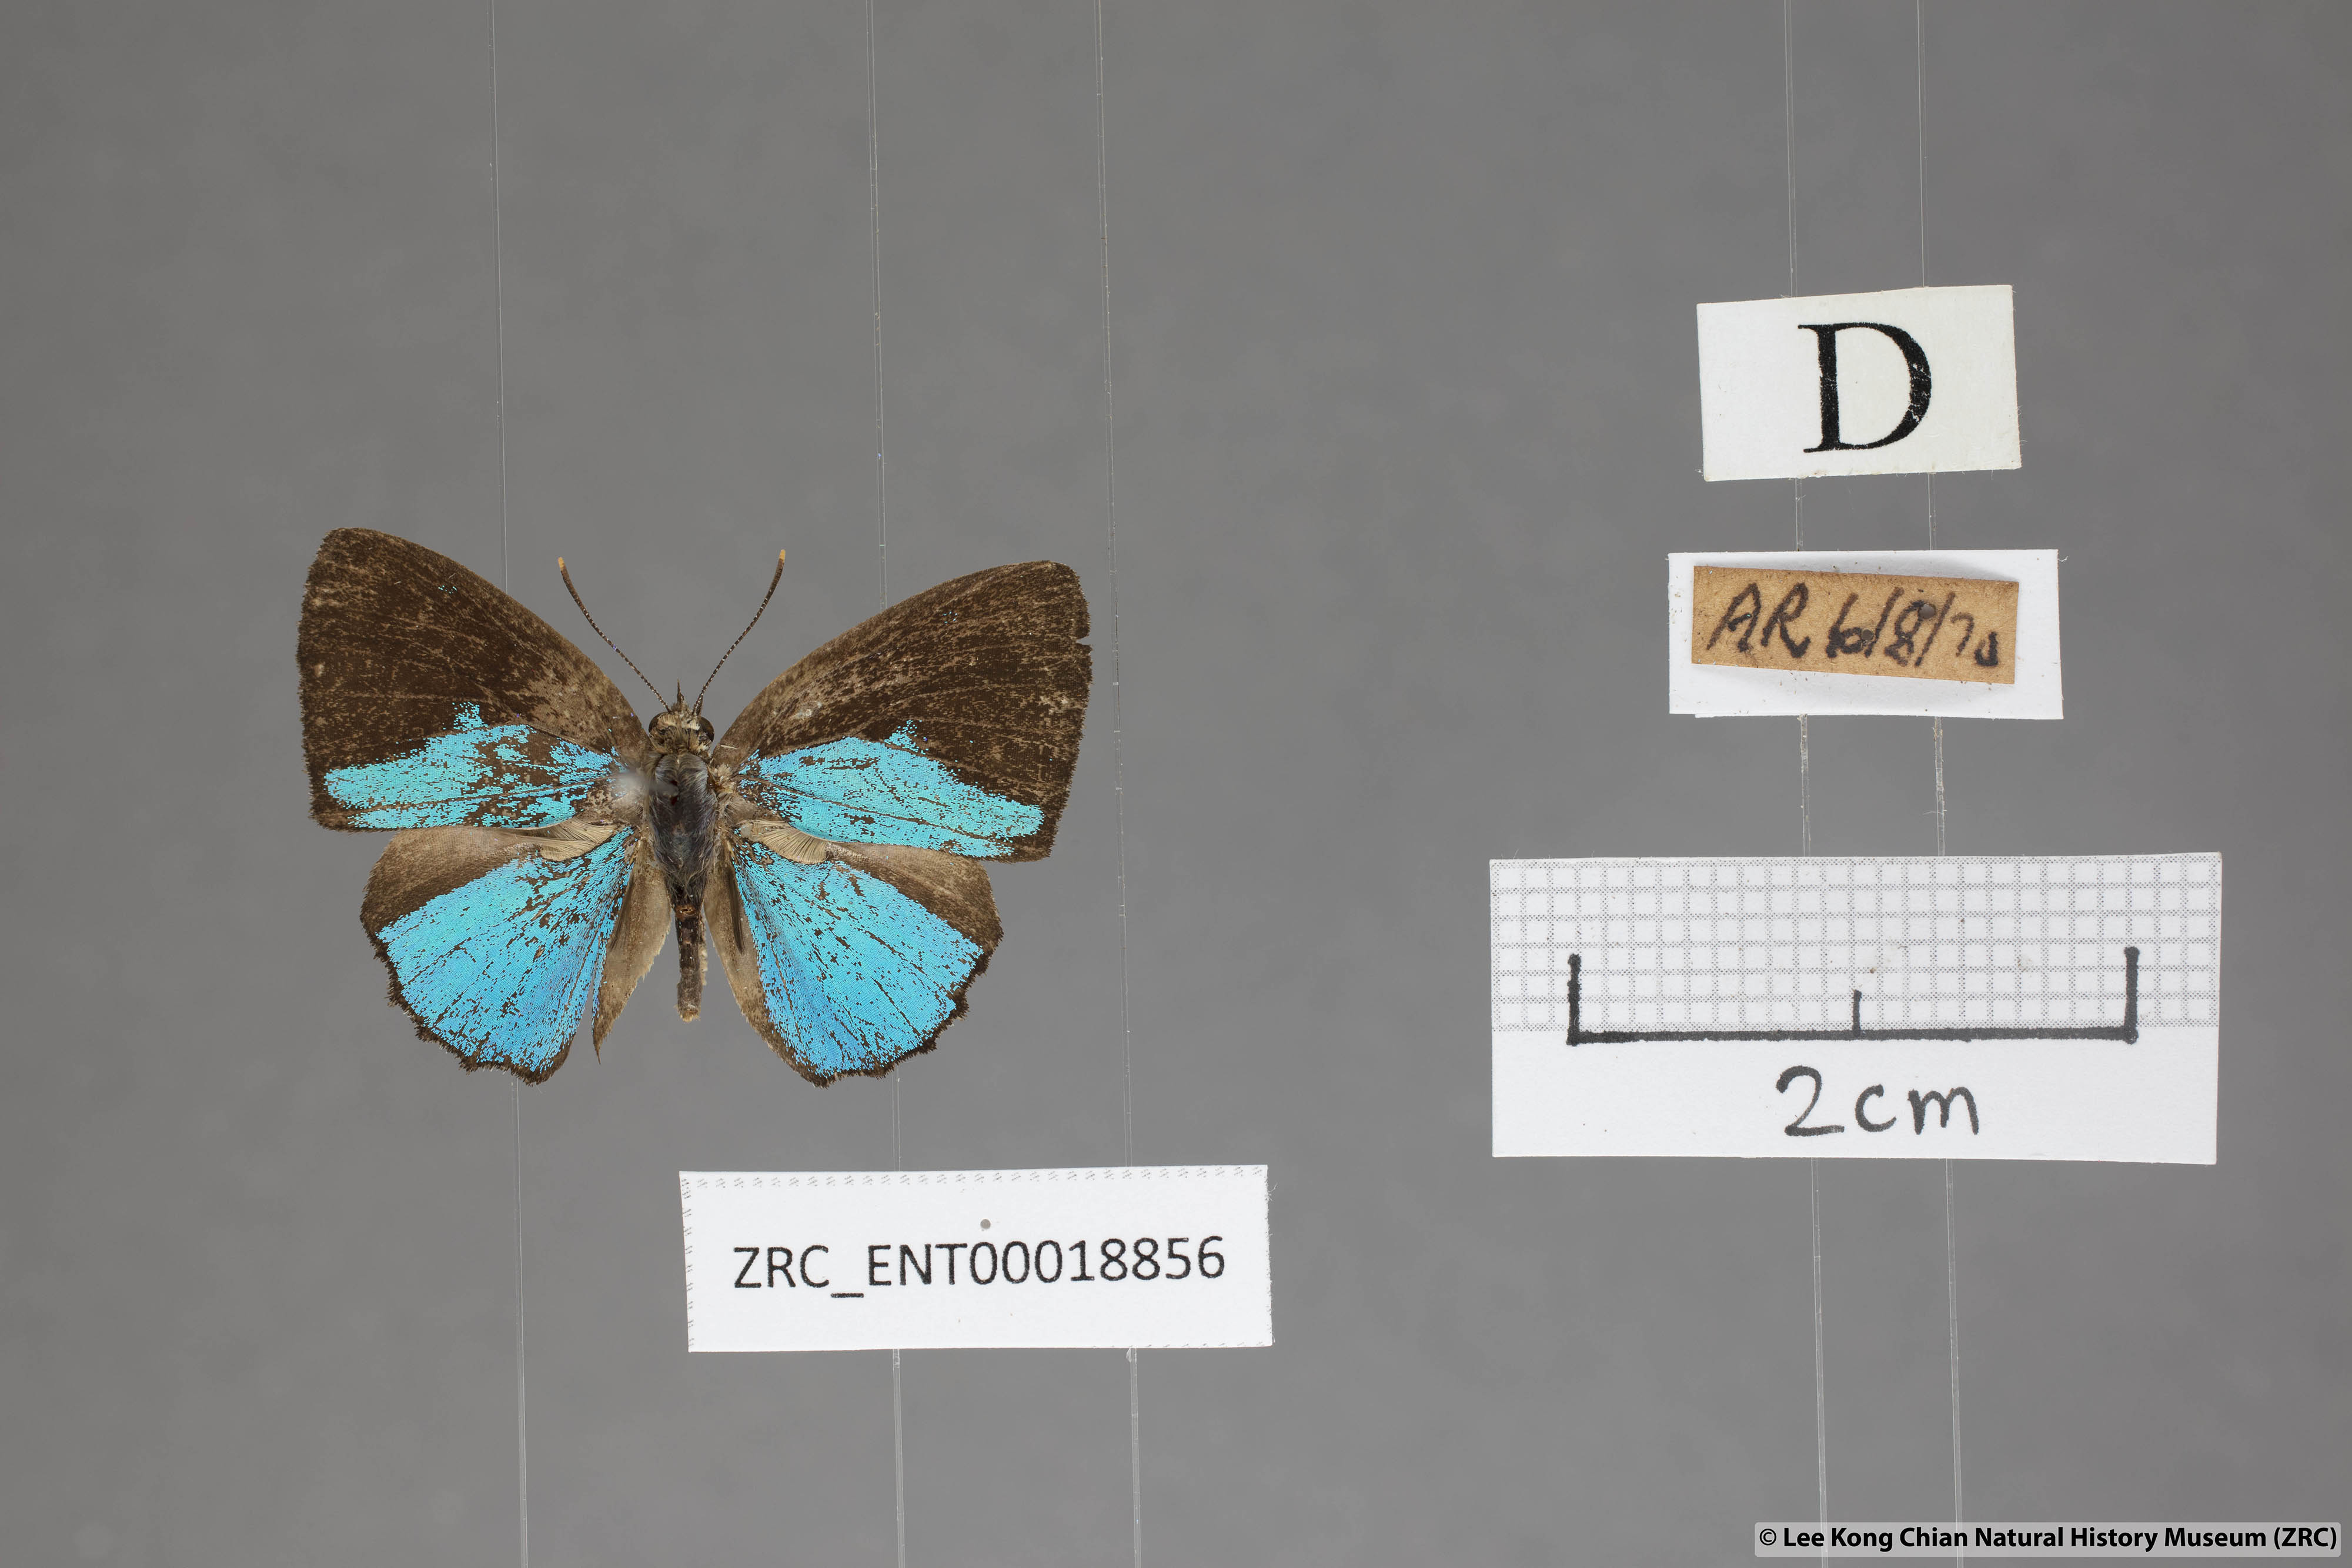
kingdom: Animalia
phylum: Arthropoda
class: Insecta
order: Lepidoptera
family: Lycaenidae
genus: Poritia
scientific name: Poritia sumatrae
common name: Sumatran gem
